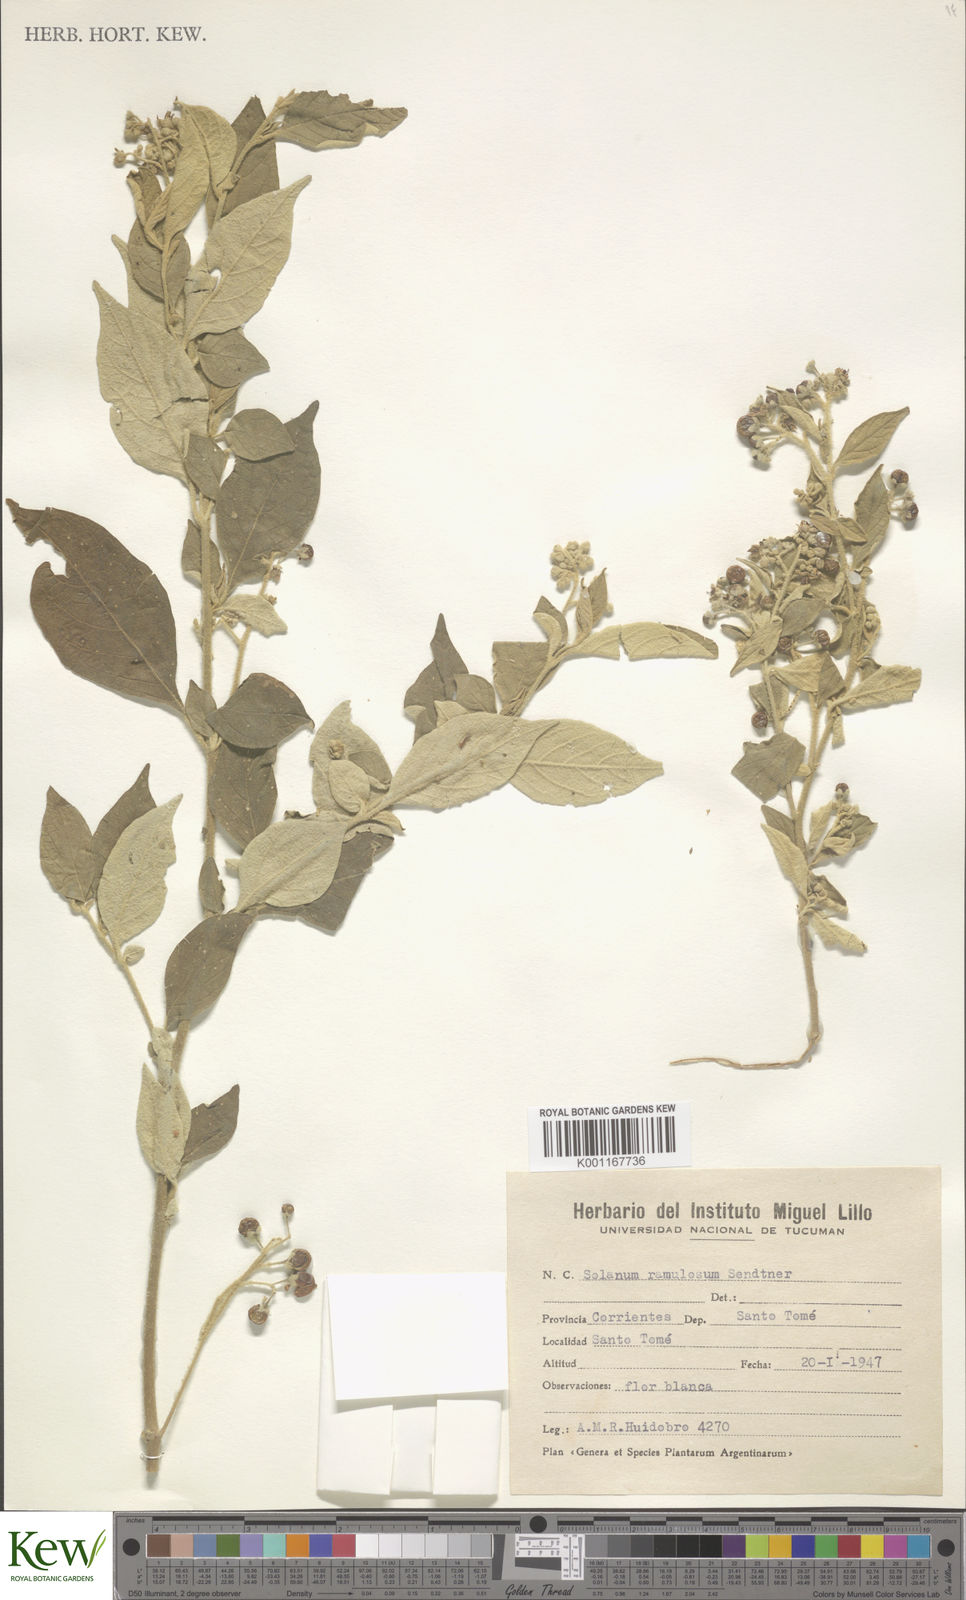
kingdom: Plantae
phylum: Tracheophyta
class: Magnoliopsida
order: Solanales
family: Solanaceae
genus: Solanum
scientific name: Solanum ramulosum
